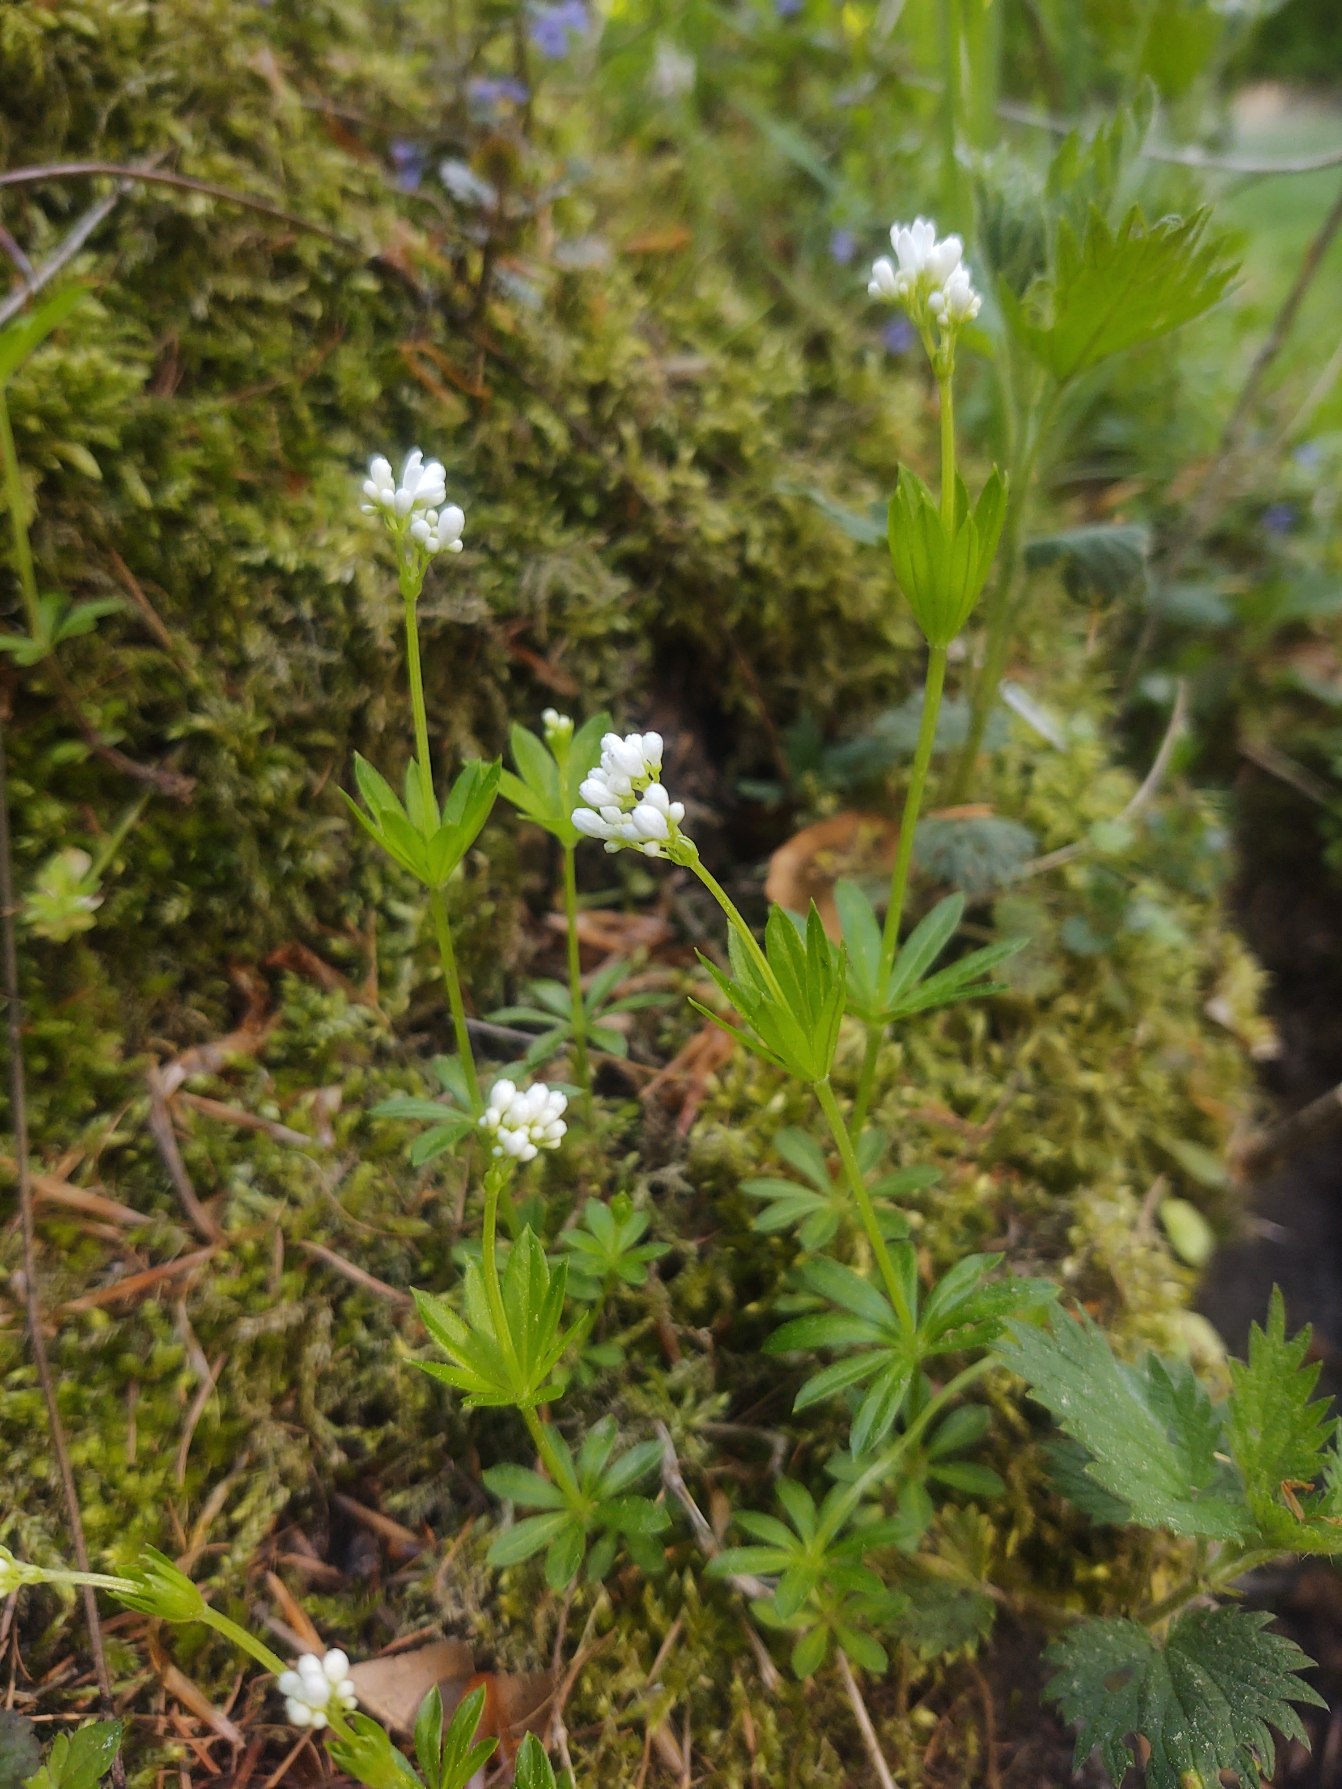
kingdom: Plantae
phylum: Tracheophyta
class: Magnoliopsida
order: Gentianales
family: Rubiaceae
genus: Galium
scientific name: Galium odoratum
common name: Skovmærke
